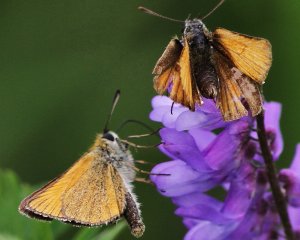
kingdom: Animalia
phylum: Arthropoda
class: Insecta
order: Lepidoptera
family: Hesperiidae
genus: Thymelicus
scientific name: Thymelicus lineola
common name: European Skipper
